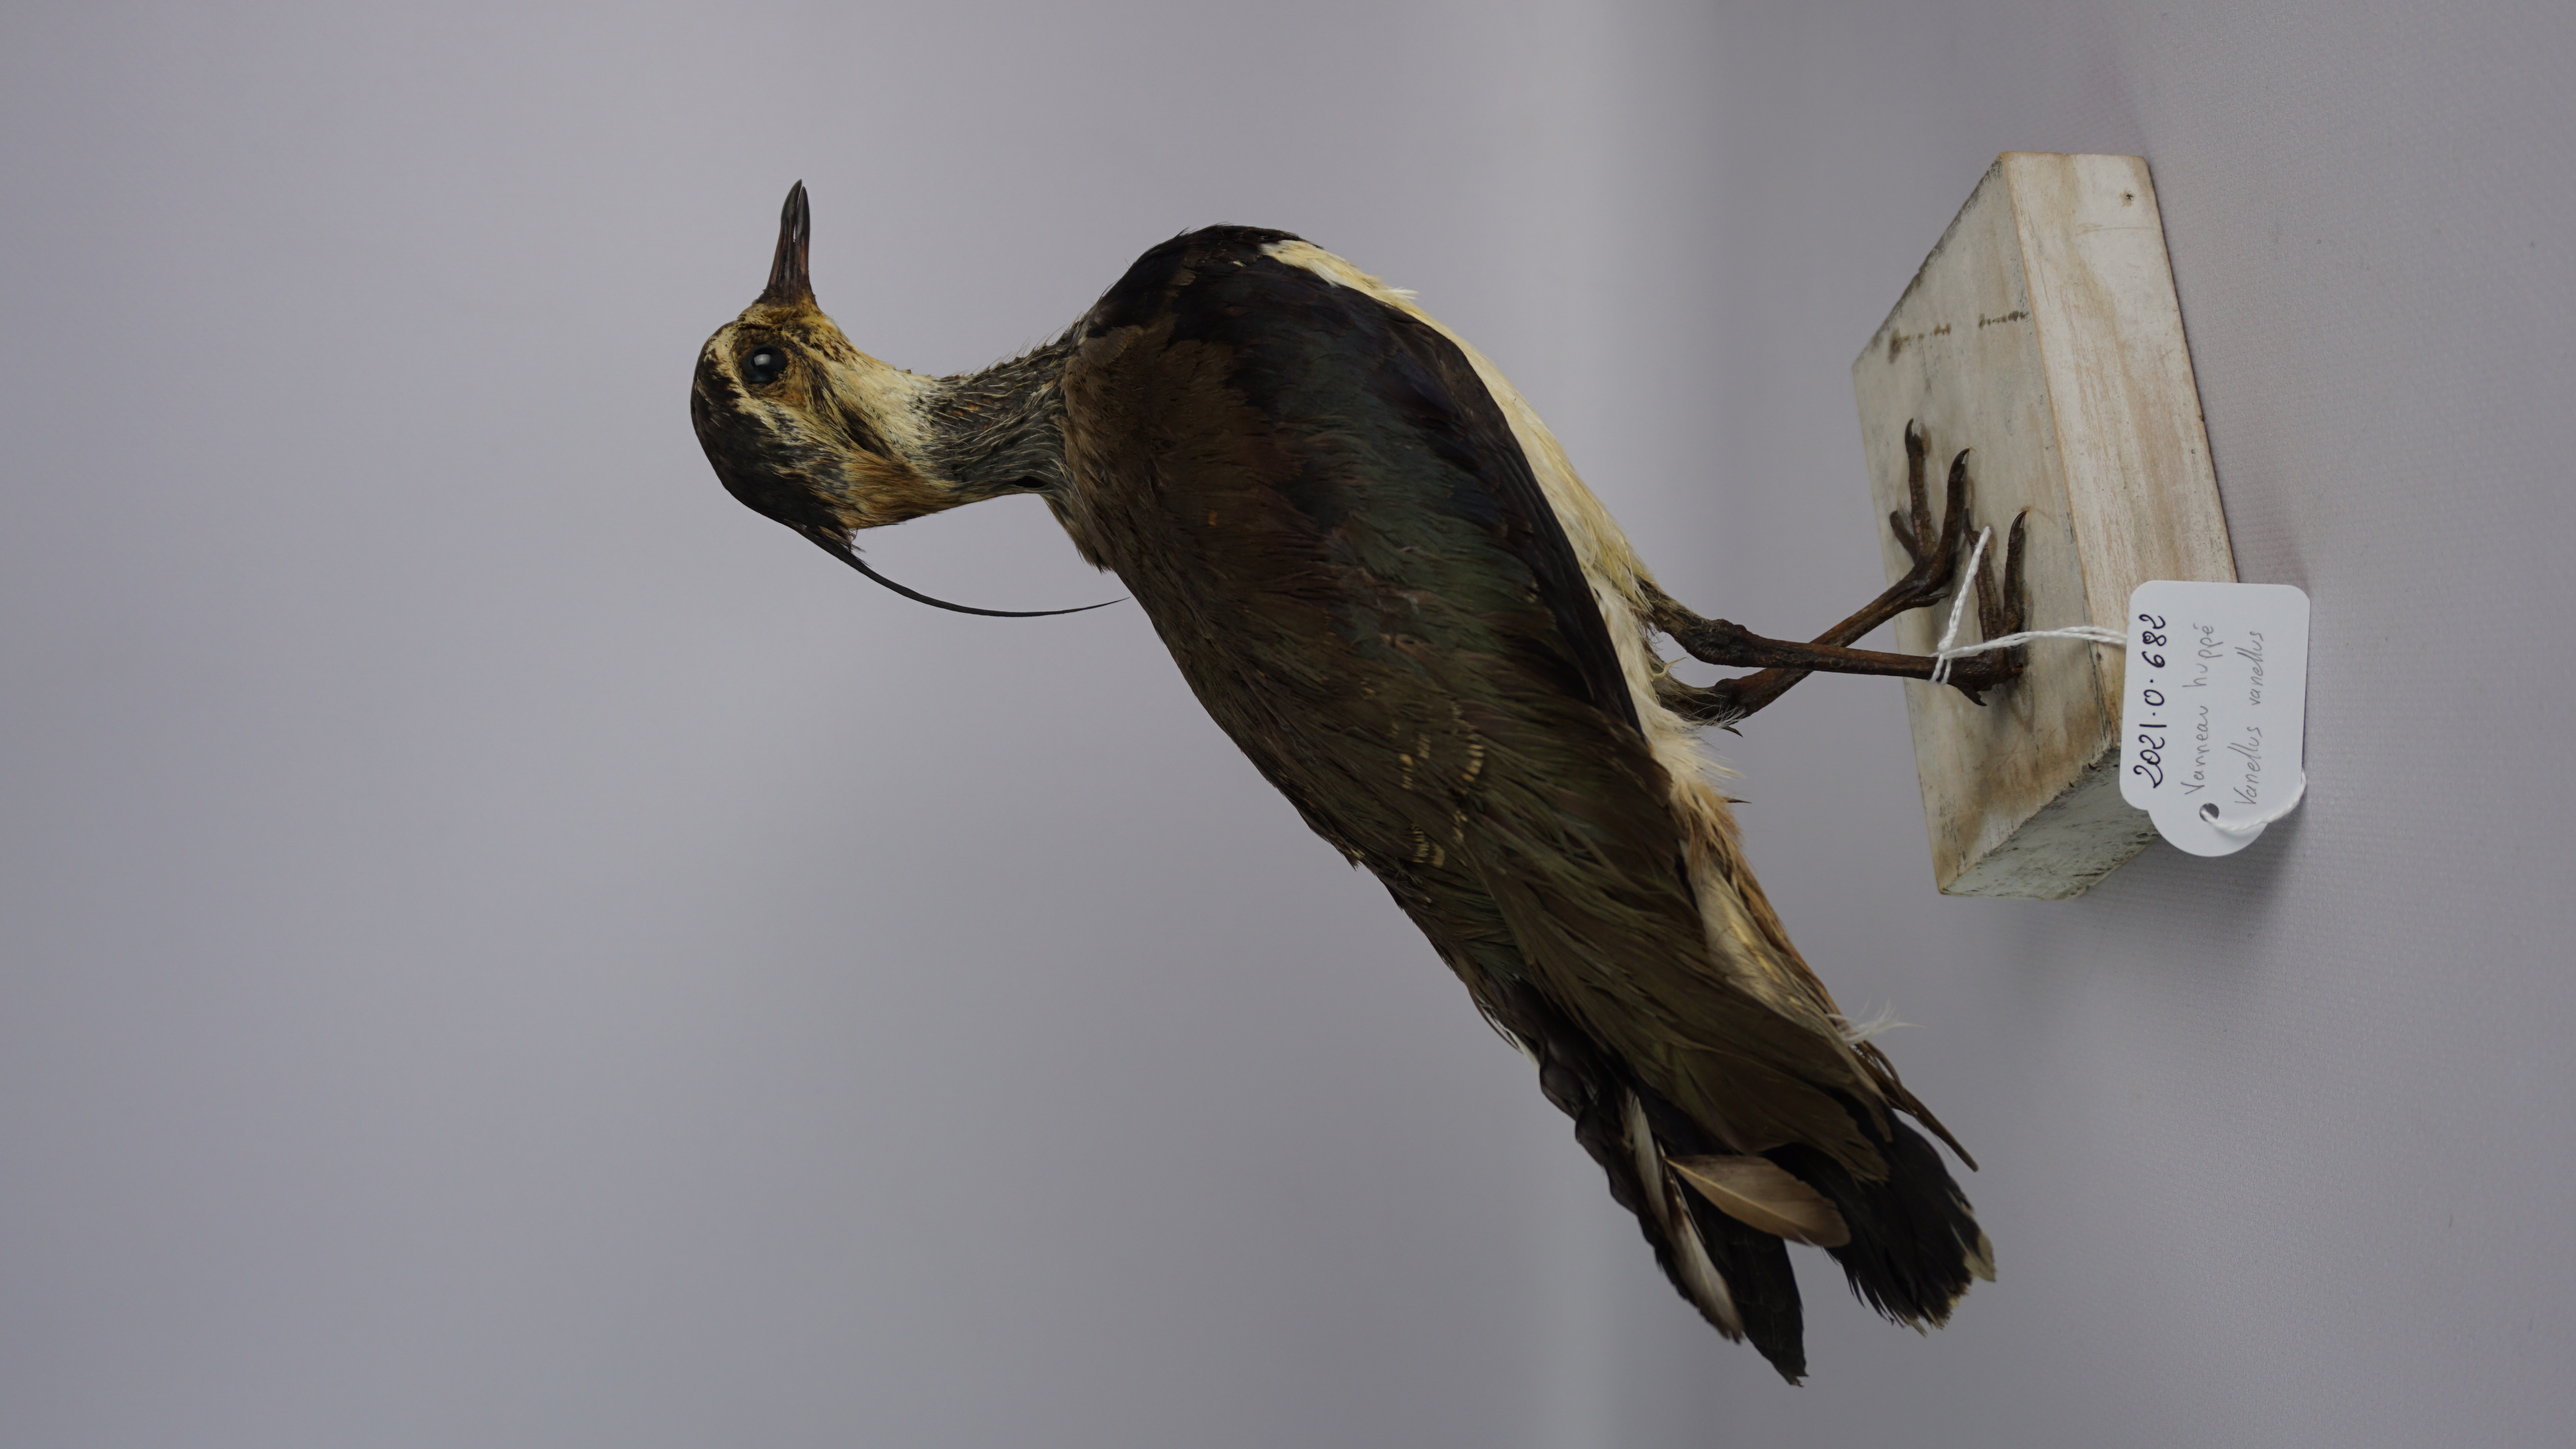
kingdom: Animalia
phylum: Chordata
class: Aves
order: Charadriiformes
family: Charadriidae
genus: Vanellus
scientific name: Vanellus vanellus
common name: Northern lapwing
